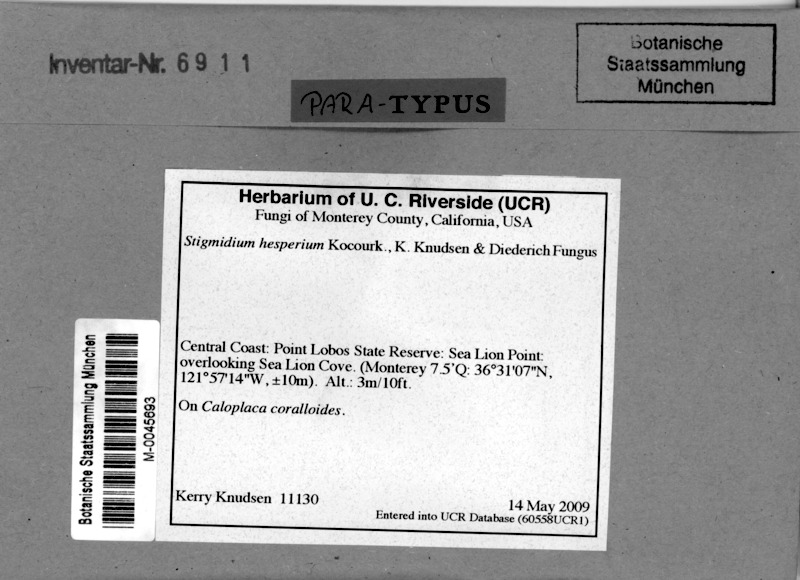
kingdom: Fungi
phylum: Ascomycota
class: Lecanoromycetes
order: Teloschistales
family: Teloschistaceae
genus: Polycauliona
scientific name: Polycauliona coralloides
